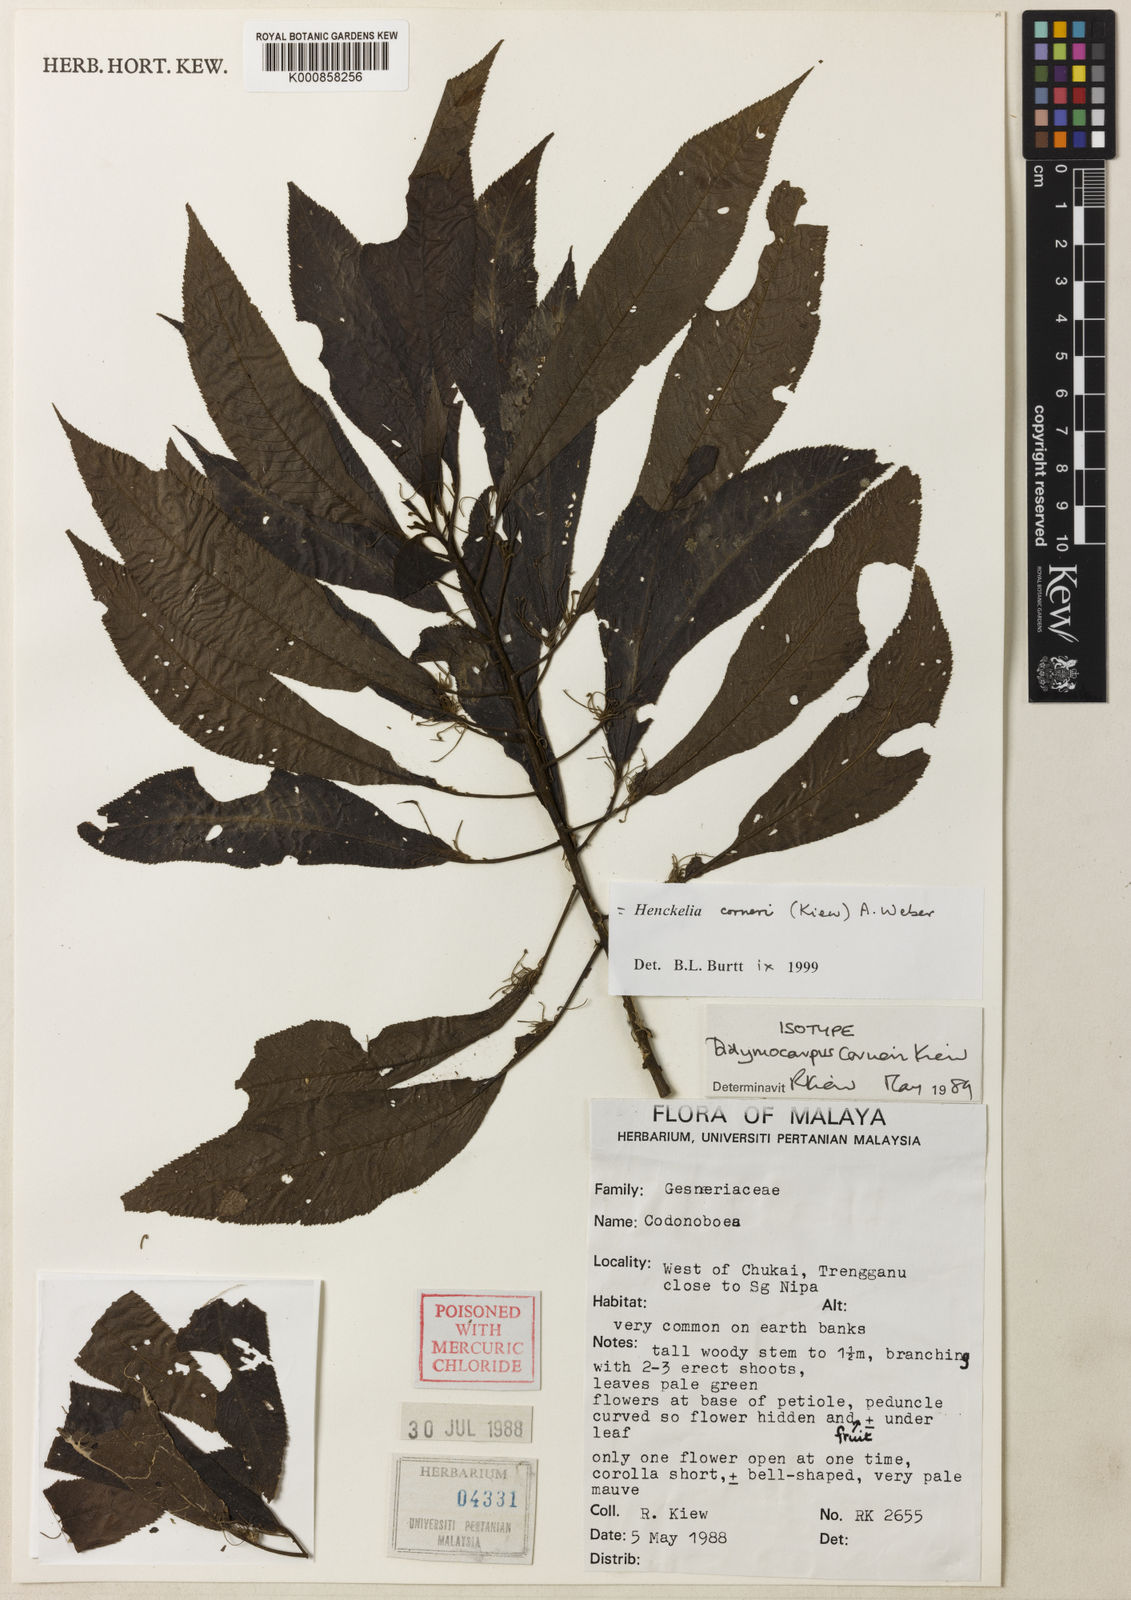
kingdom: Plantae
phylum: Tracheophyta
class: Magnoliopsida
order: Lamiales
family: Gesneriaceae
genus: Codonoboea
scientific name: Codonoboea corneri
